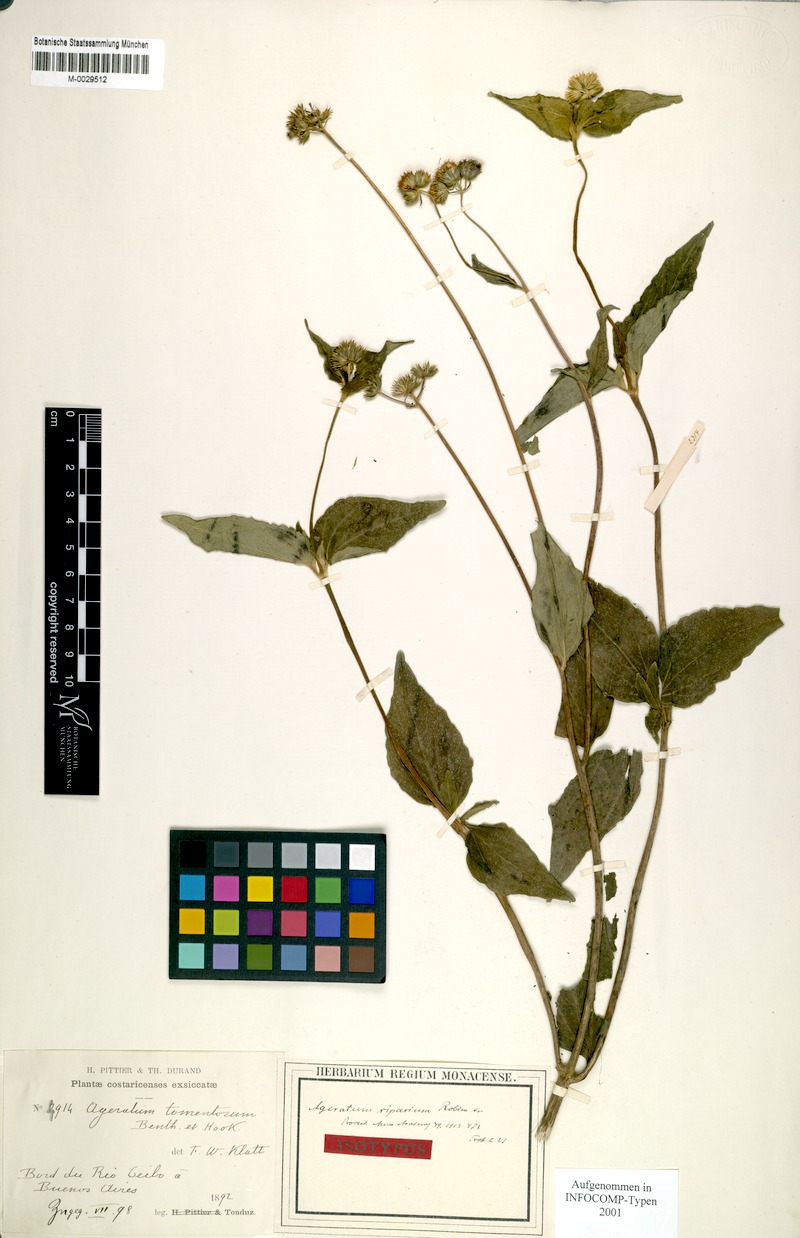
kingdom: Plantae
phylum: Tracheophyta
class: Magnoliopsida
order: Asterales
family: Asteraceae
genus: Ageratum
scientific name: Ageratum riparium
